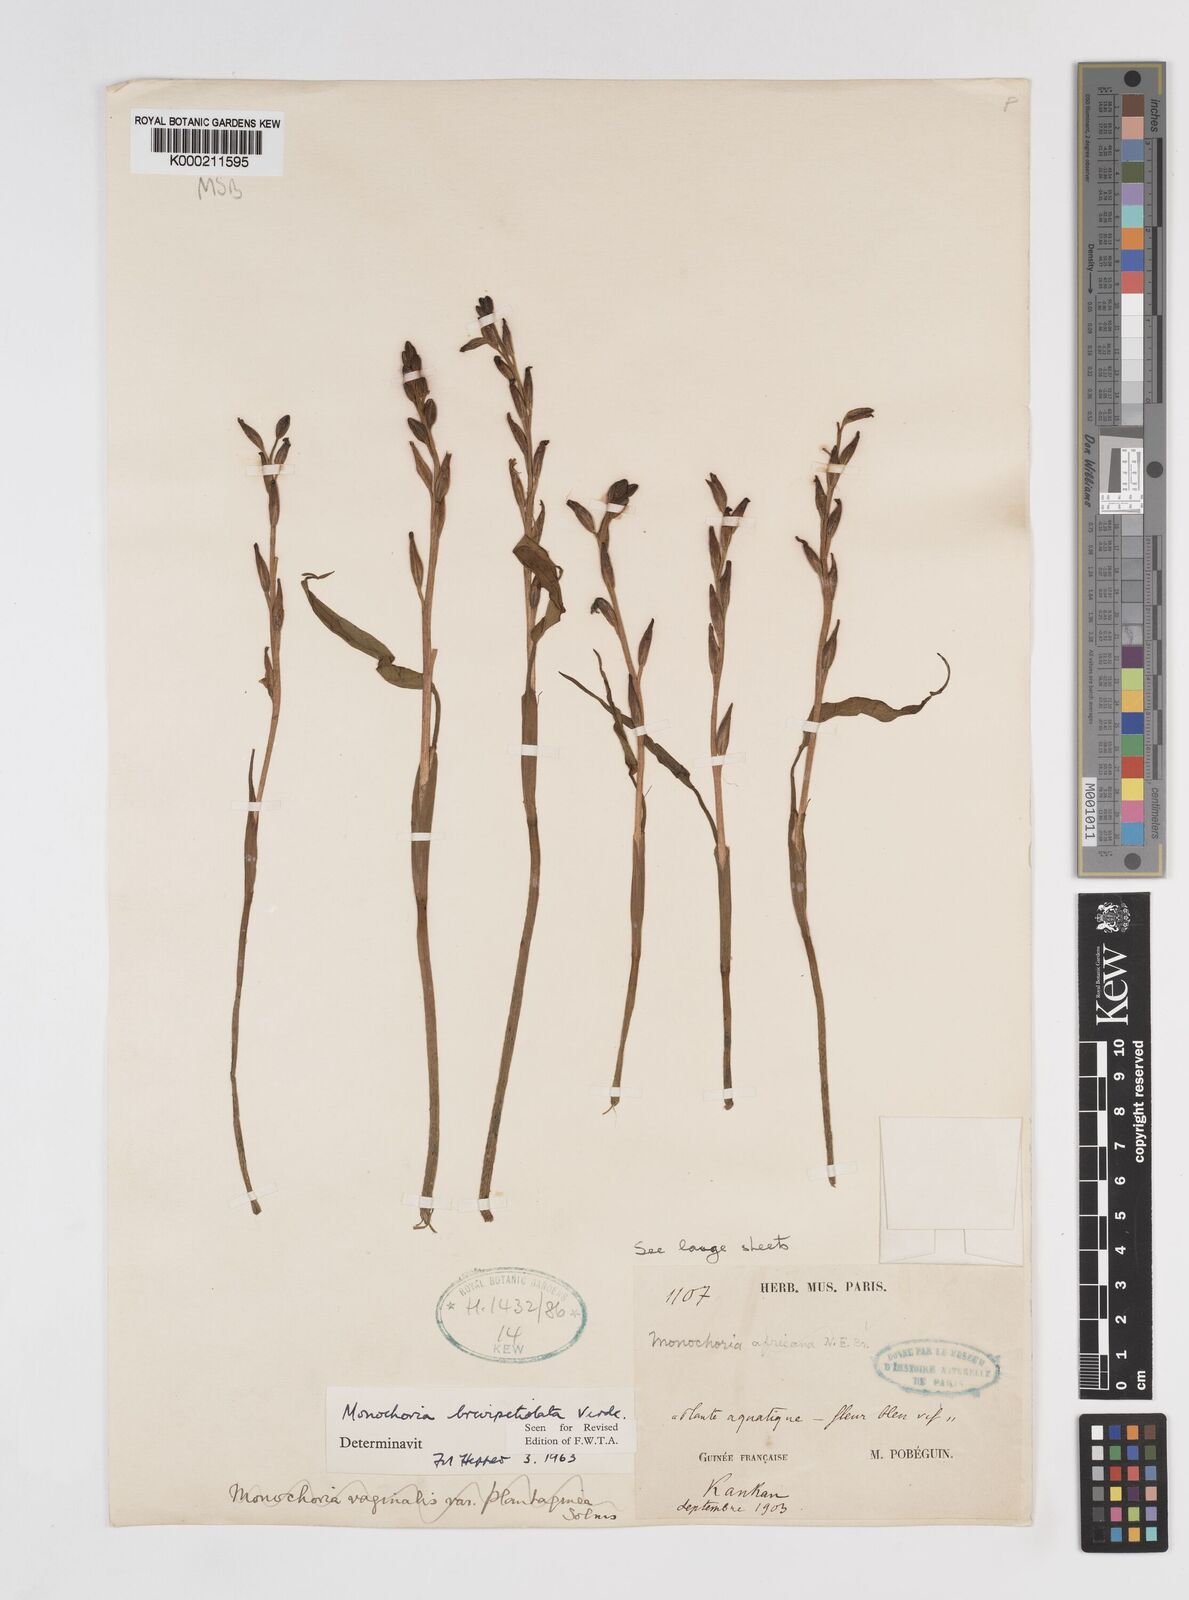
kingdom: Plantae
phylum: Tracheophyta
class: Liliopsida
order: Commelinales
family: Pontederiaceae
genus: Pontederia
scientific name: Pontederia brevipetiolata
